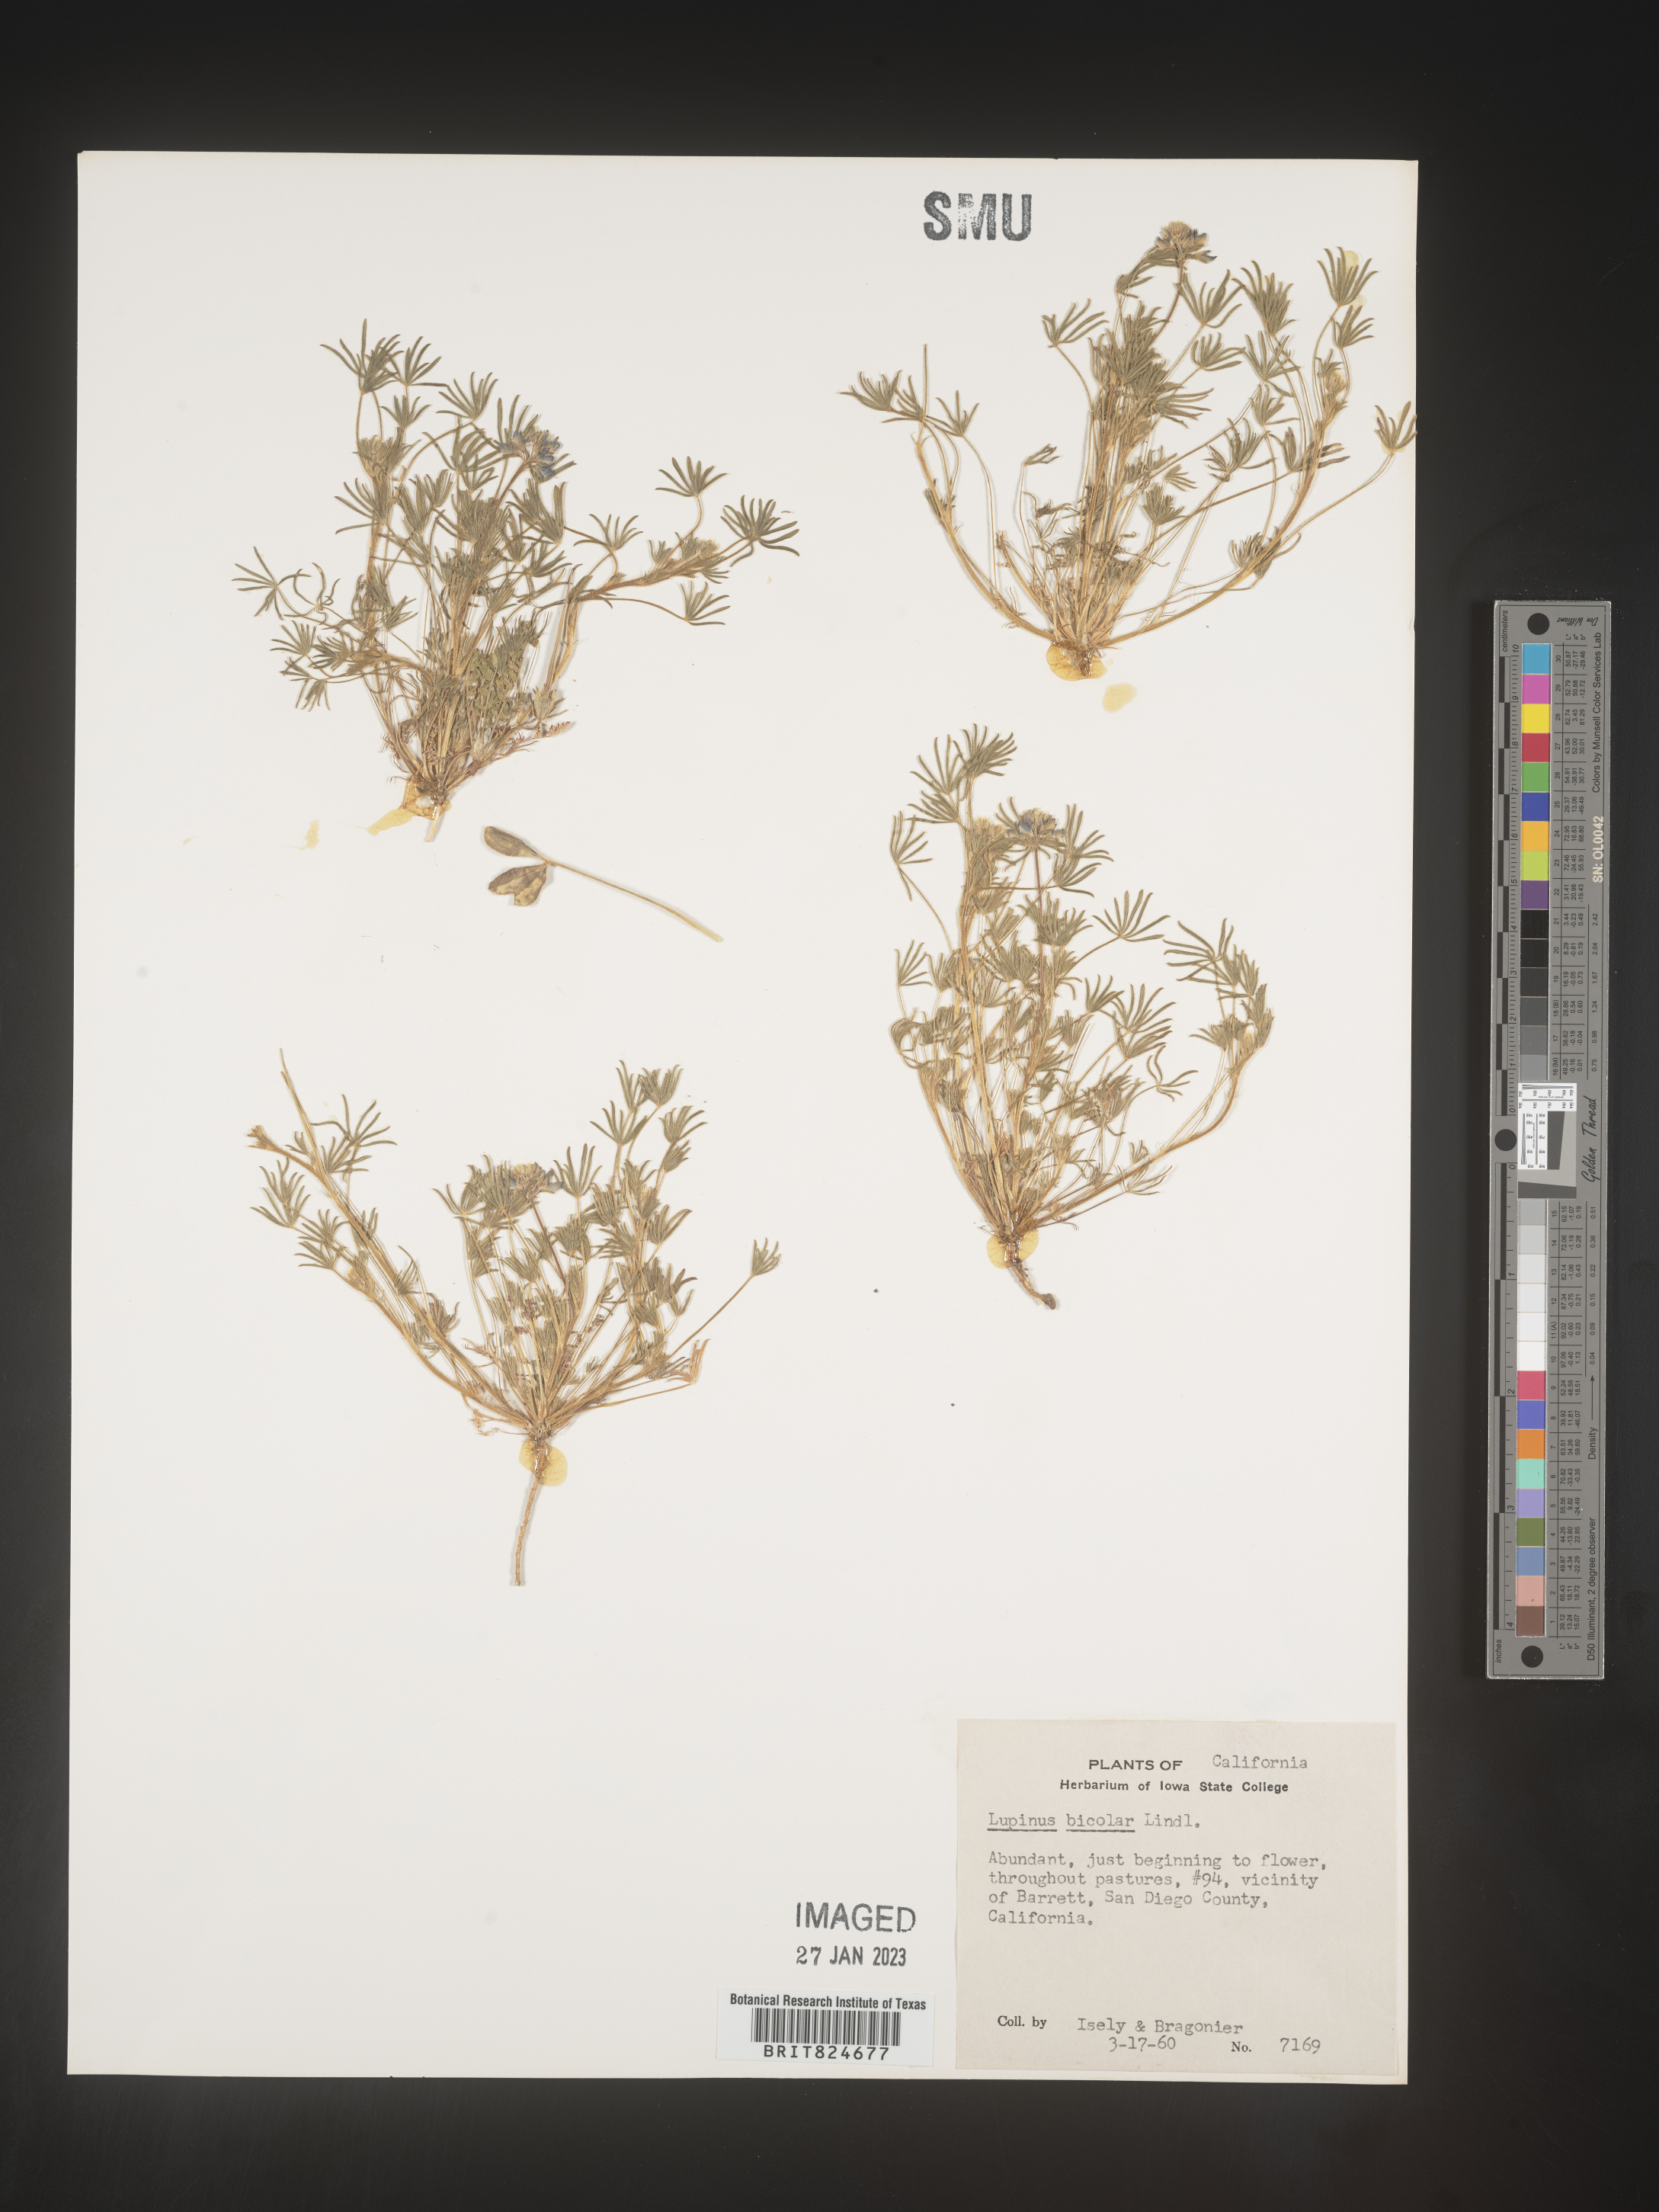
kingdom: Plantae
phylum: Tracheophyta
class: Magnoliopsida
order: Fabales
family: Fabaceae
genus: Lupinus
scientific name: Lupinus bicolor
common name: Miniature lupine
